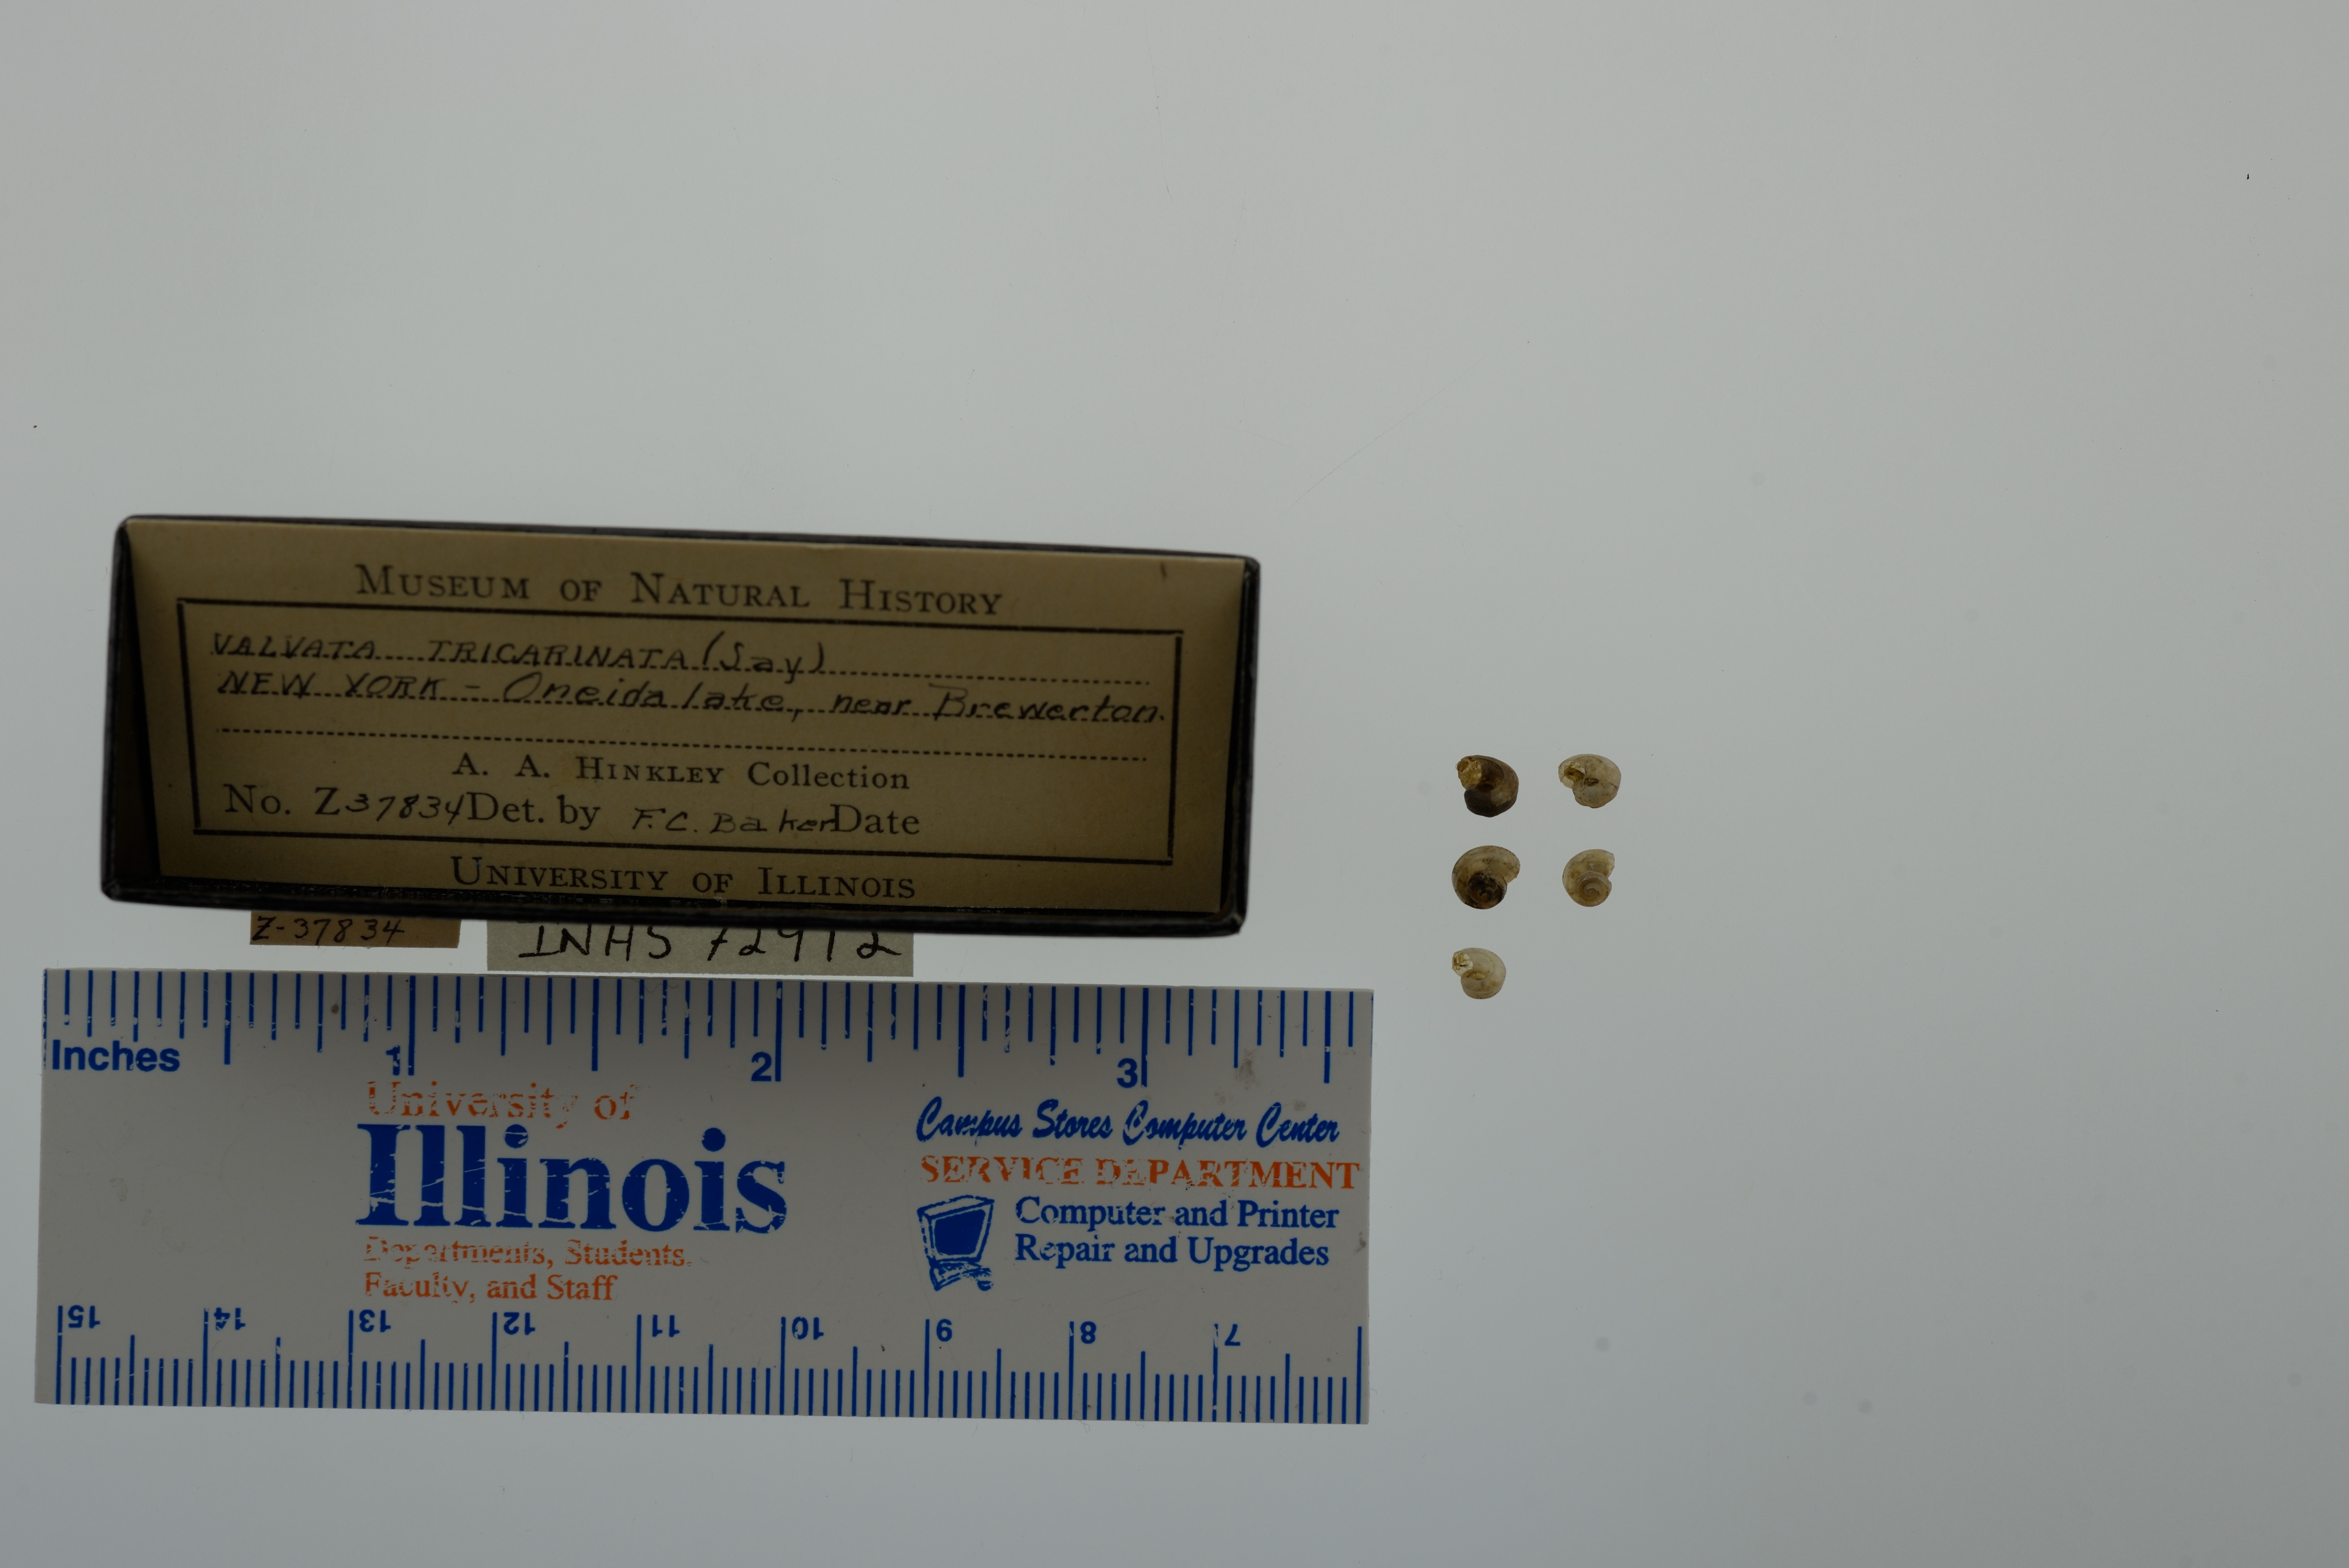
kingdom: Animalia
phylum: Mollusca
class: Gastropoda
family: Valvatidae
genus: Valvata
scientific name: Valvata tricarinata
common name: Three-ridge valvata
